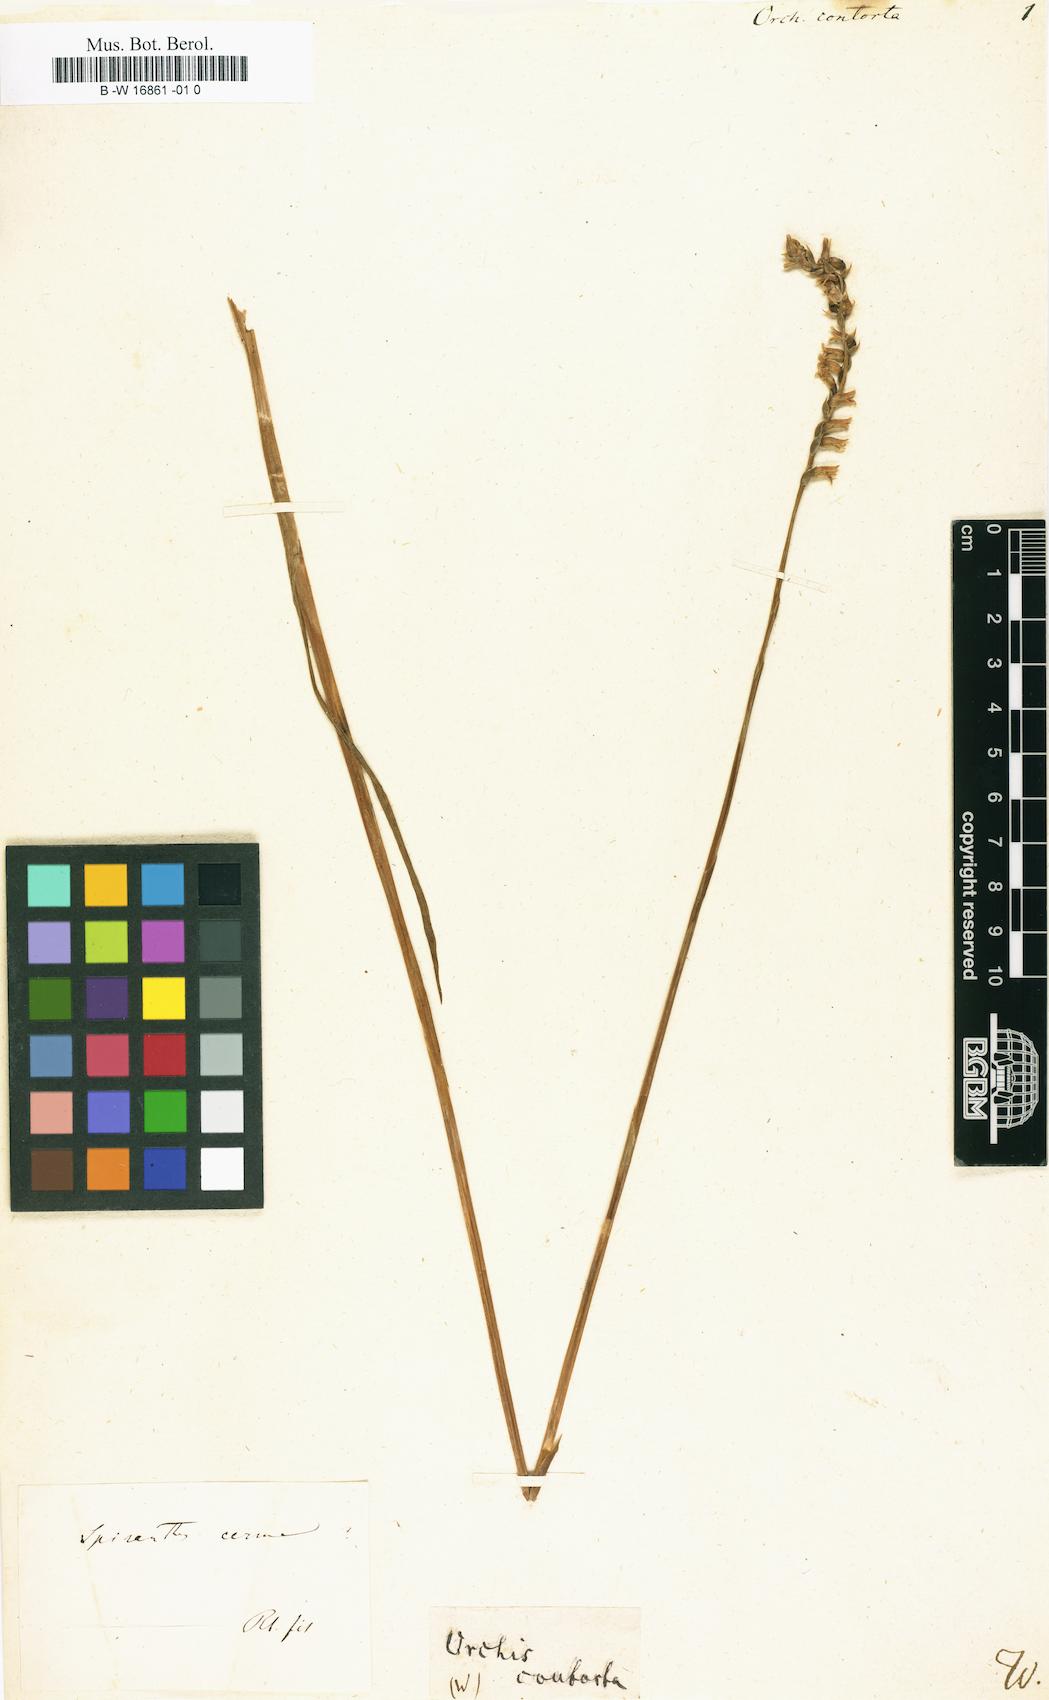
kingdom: Plantae
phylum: Tracheophyta
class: Liliopsida
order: Asparagales
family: Orchidaceae
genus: Orchis
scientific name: Orchis
